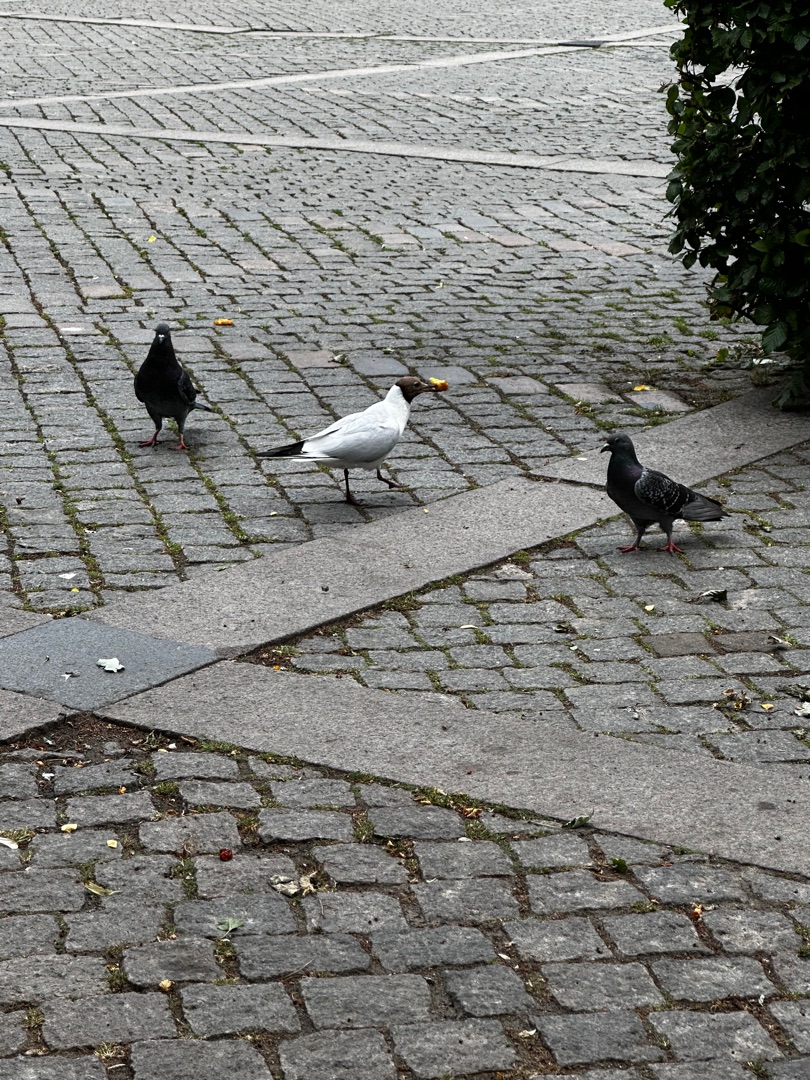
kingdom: Animalia
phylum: Chordata
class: Aves
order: Charadriiformes
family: Laridae
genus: Chroicocephalus
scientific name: Chroicocephalus ridibundus
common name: Hættemåge
